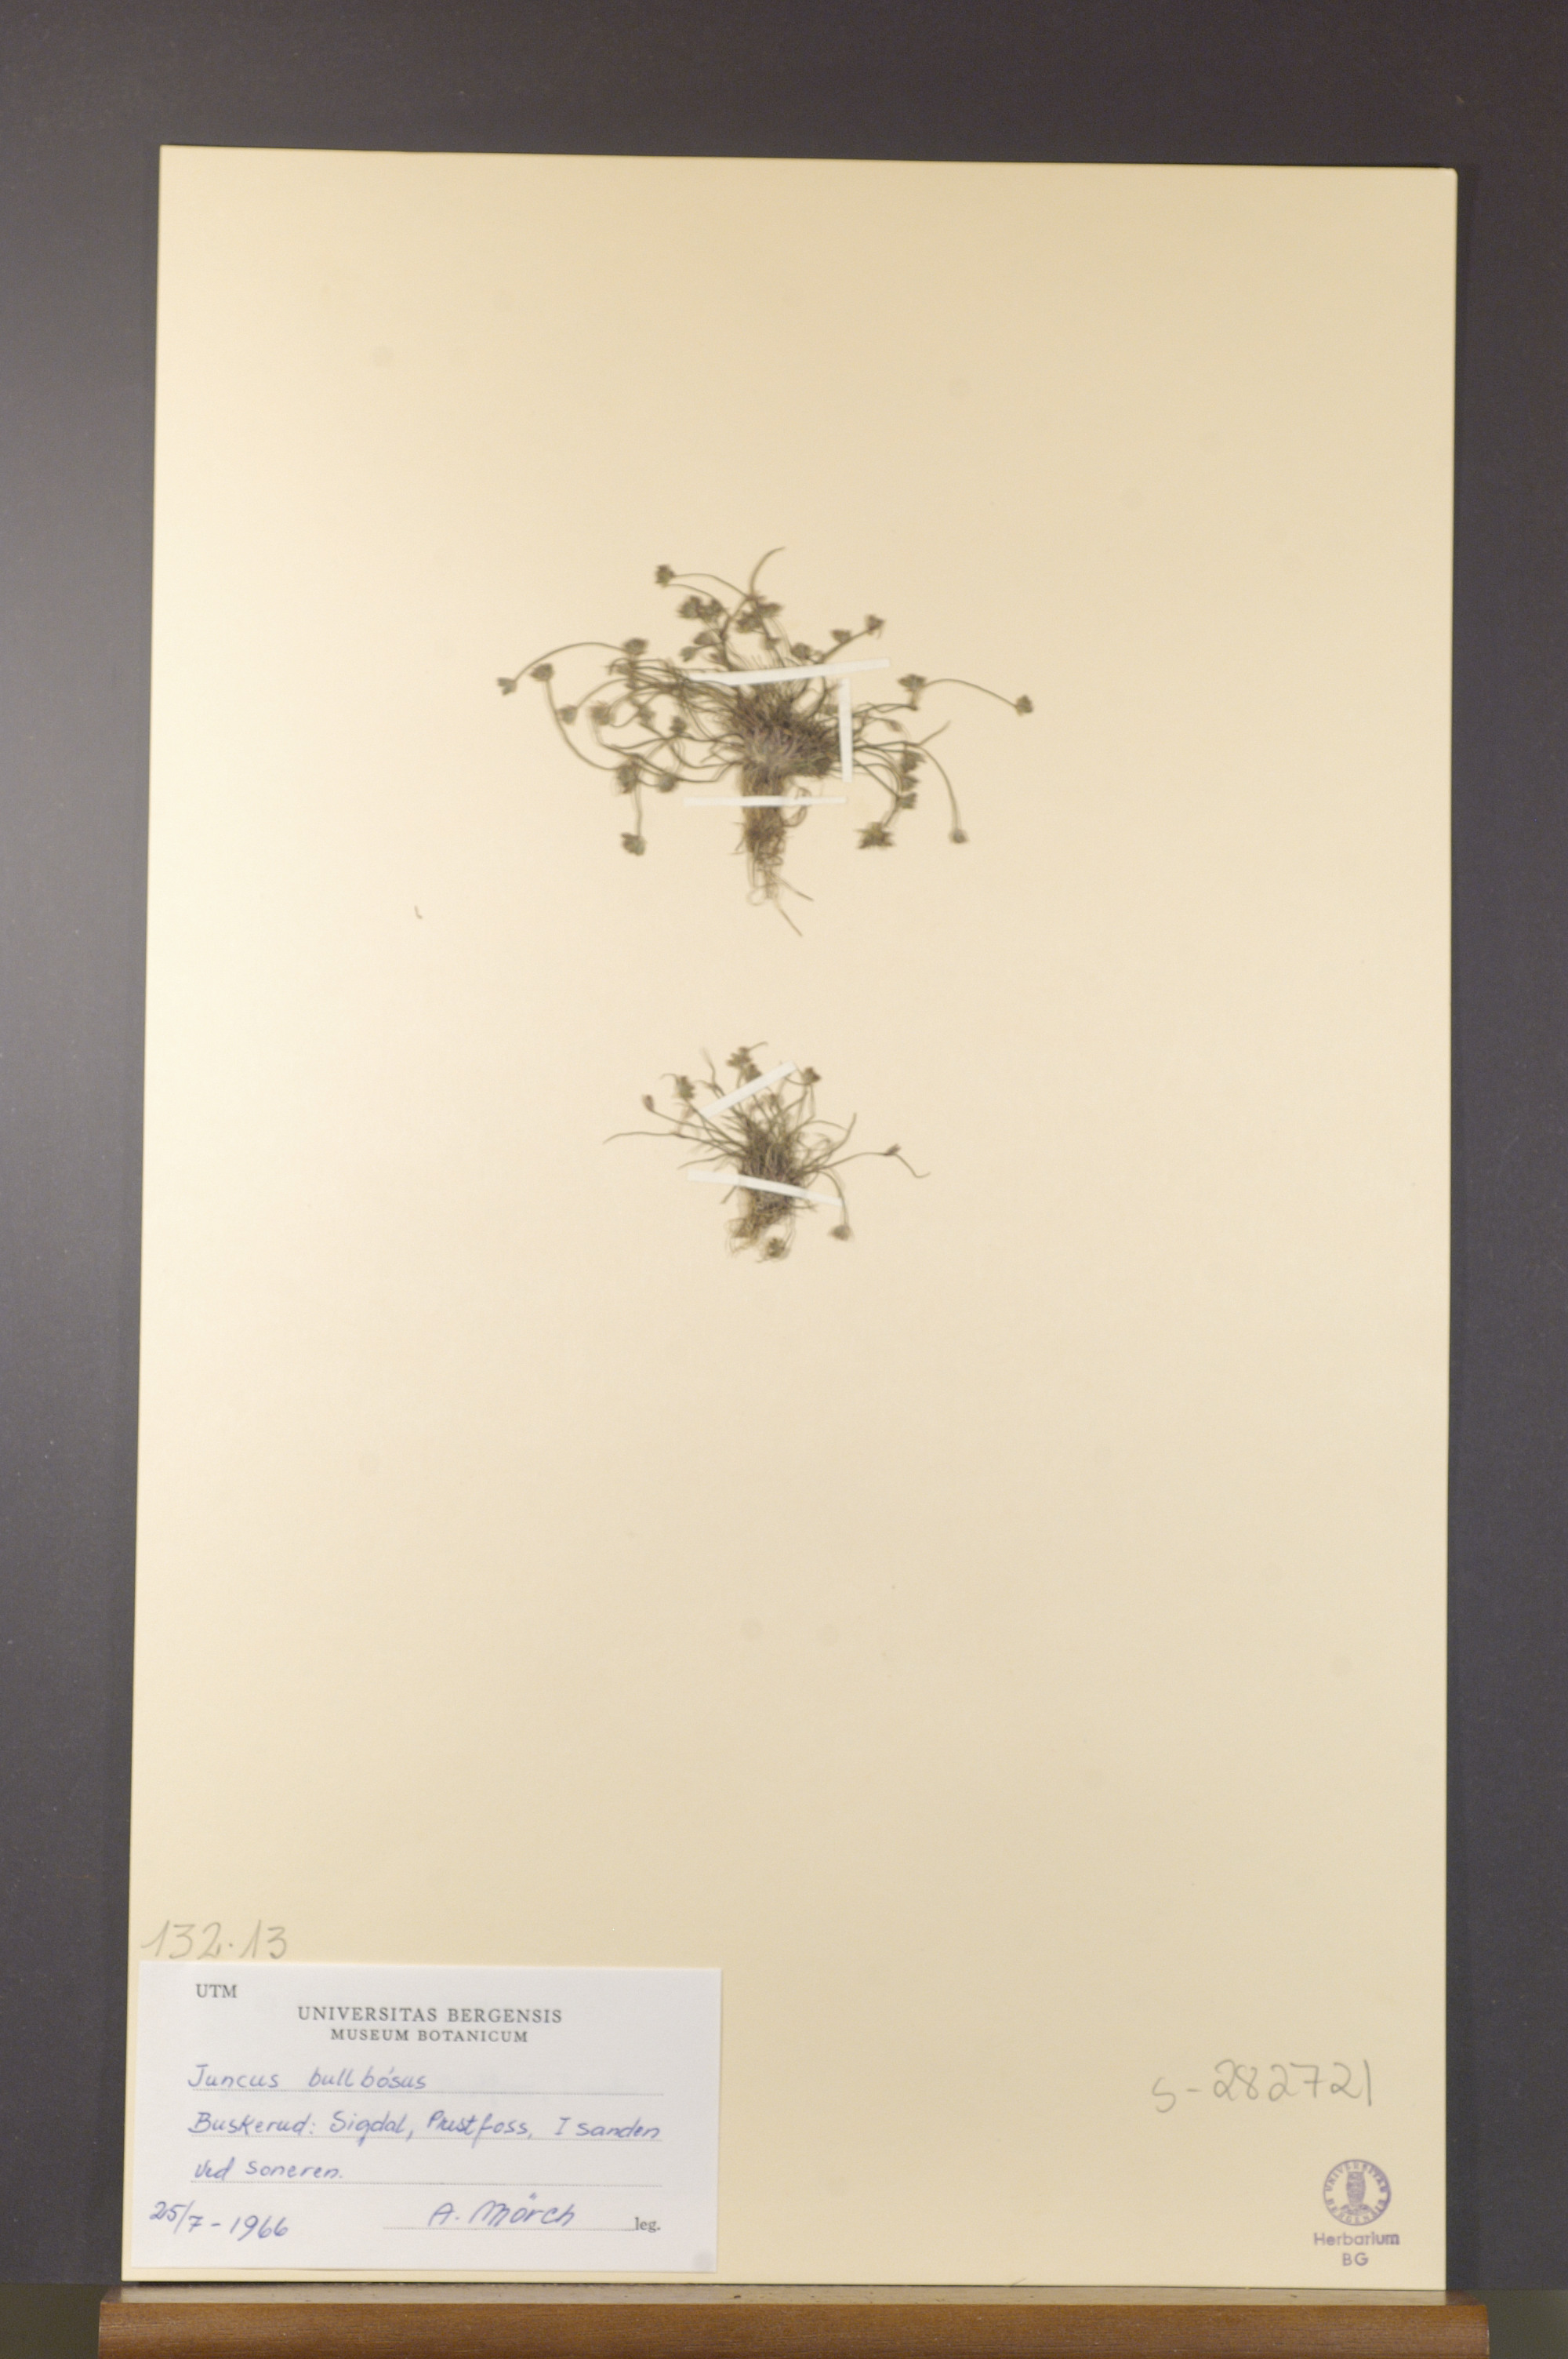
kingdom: Plantae
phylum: Tracheophyta
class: Liliopsida
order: Poales
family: Juncaceae
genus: Juncus
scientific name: Juncus compressus
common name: Round-fruited rush
